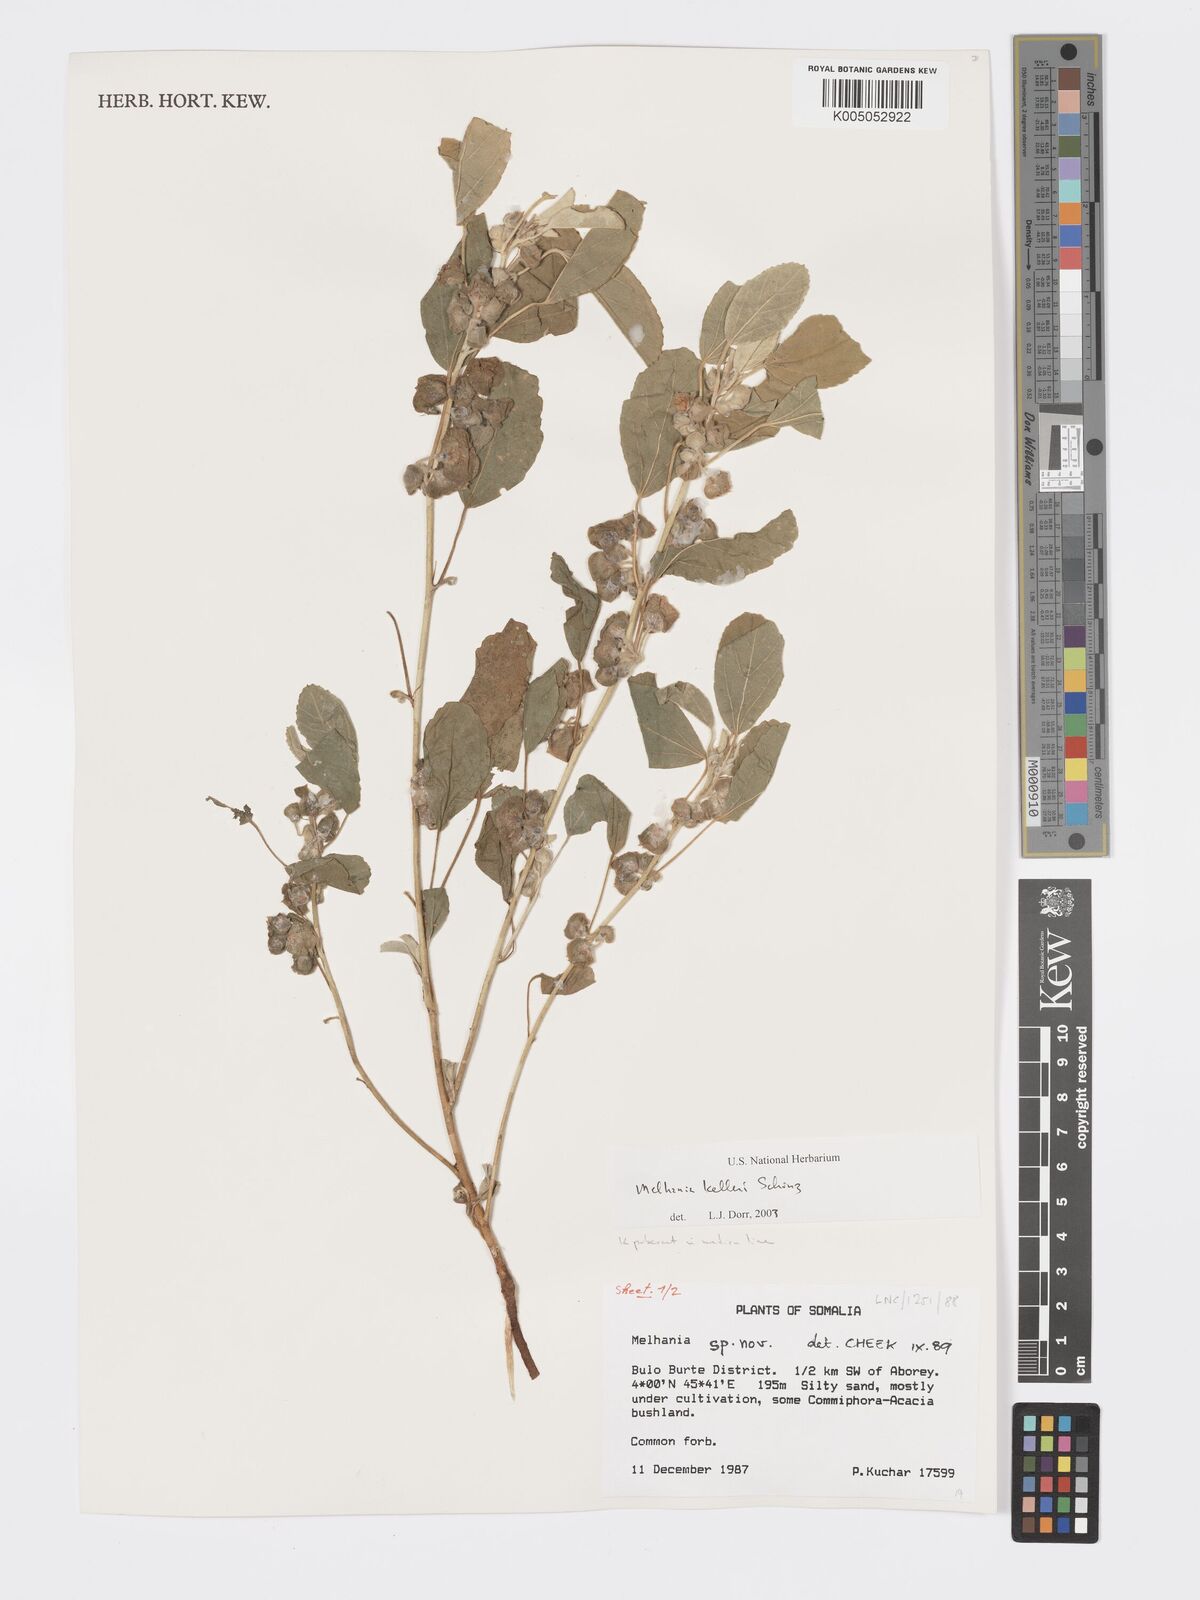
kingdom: Plantae
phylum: Tracheophyta
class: Magnoliopsida
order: Malvales
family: Malvaceae
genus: Melhania
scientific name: Melhania kelleri
